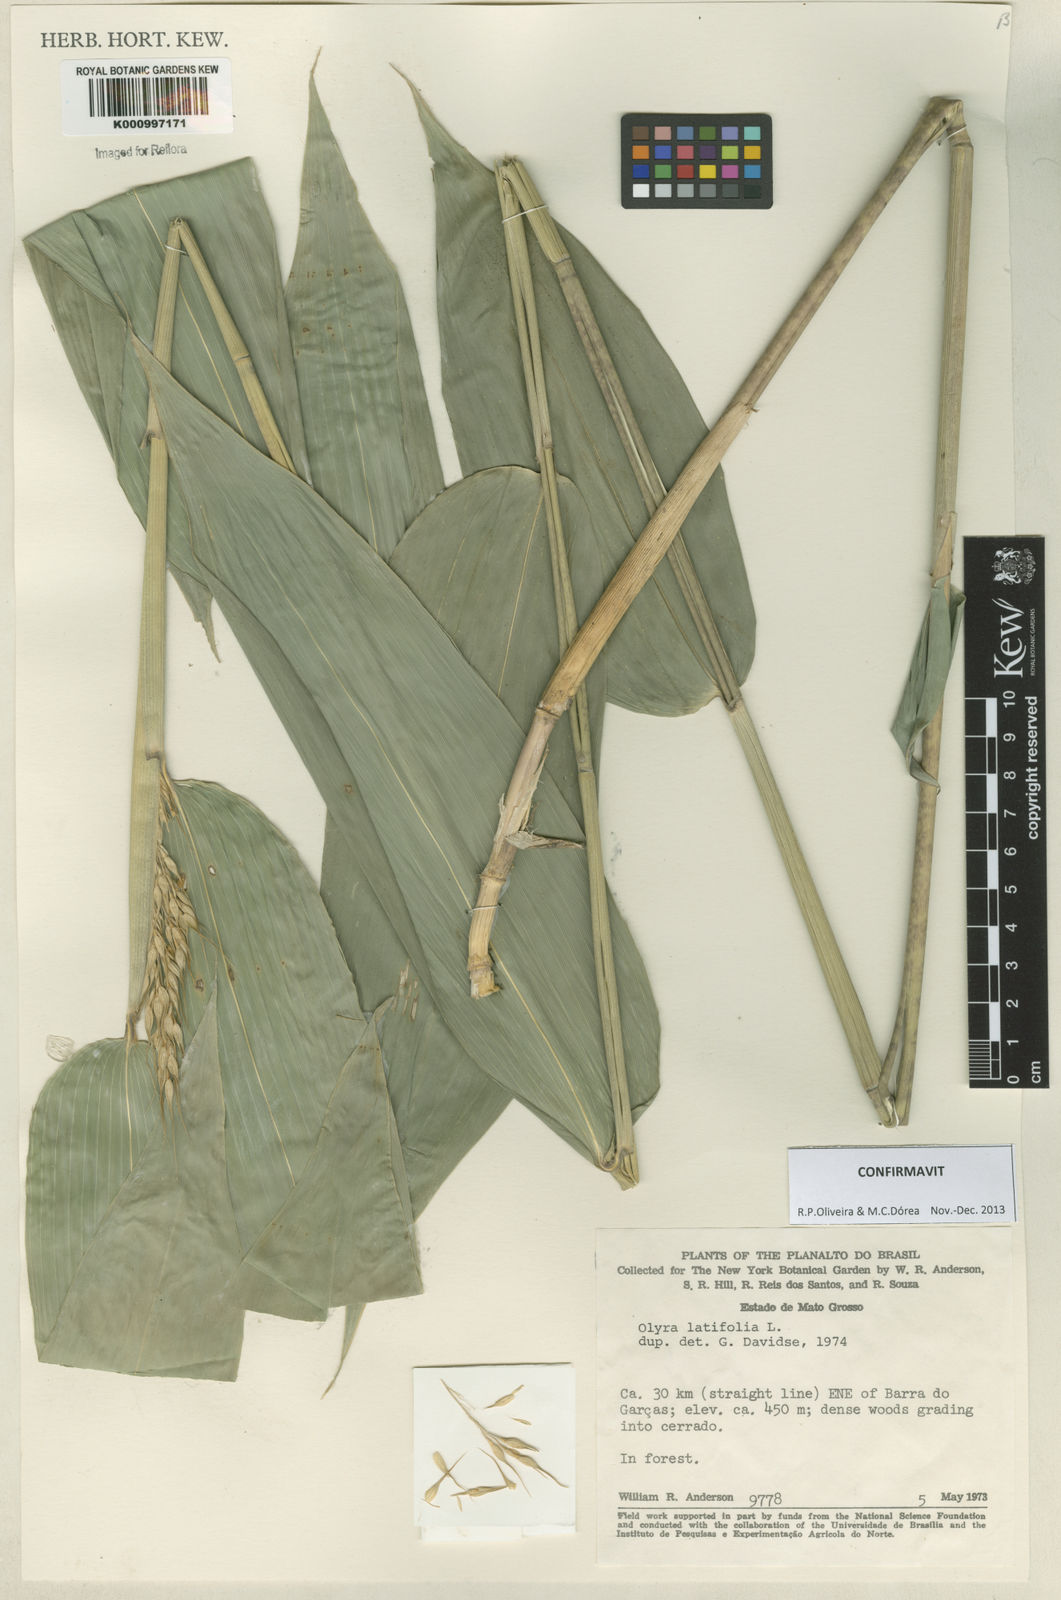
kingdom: Plantae
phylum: Tracheophyta
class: Liliopsida
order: Poales
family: Poaceae
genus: Olyra
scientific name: Olyra latifolia
